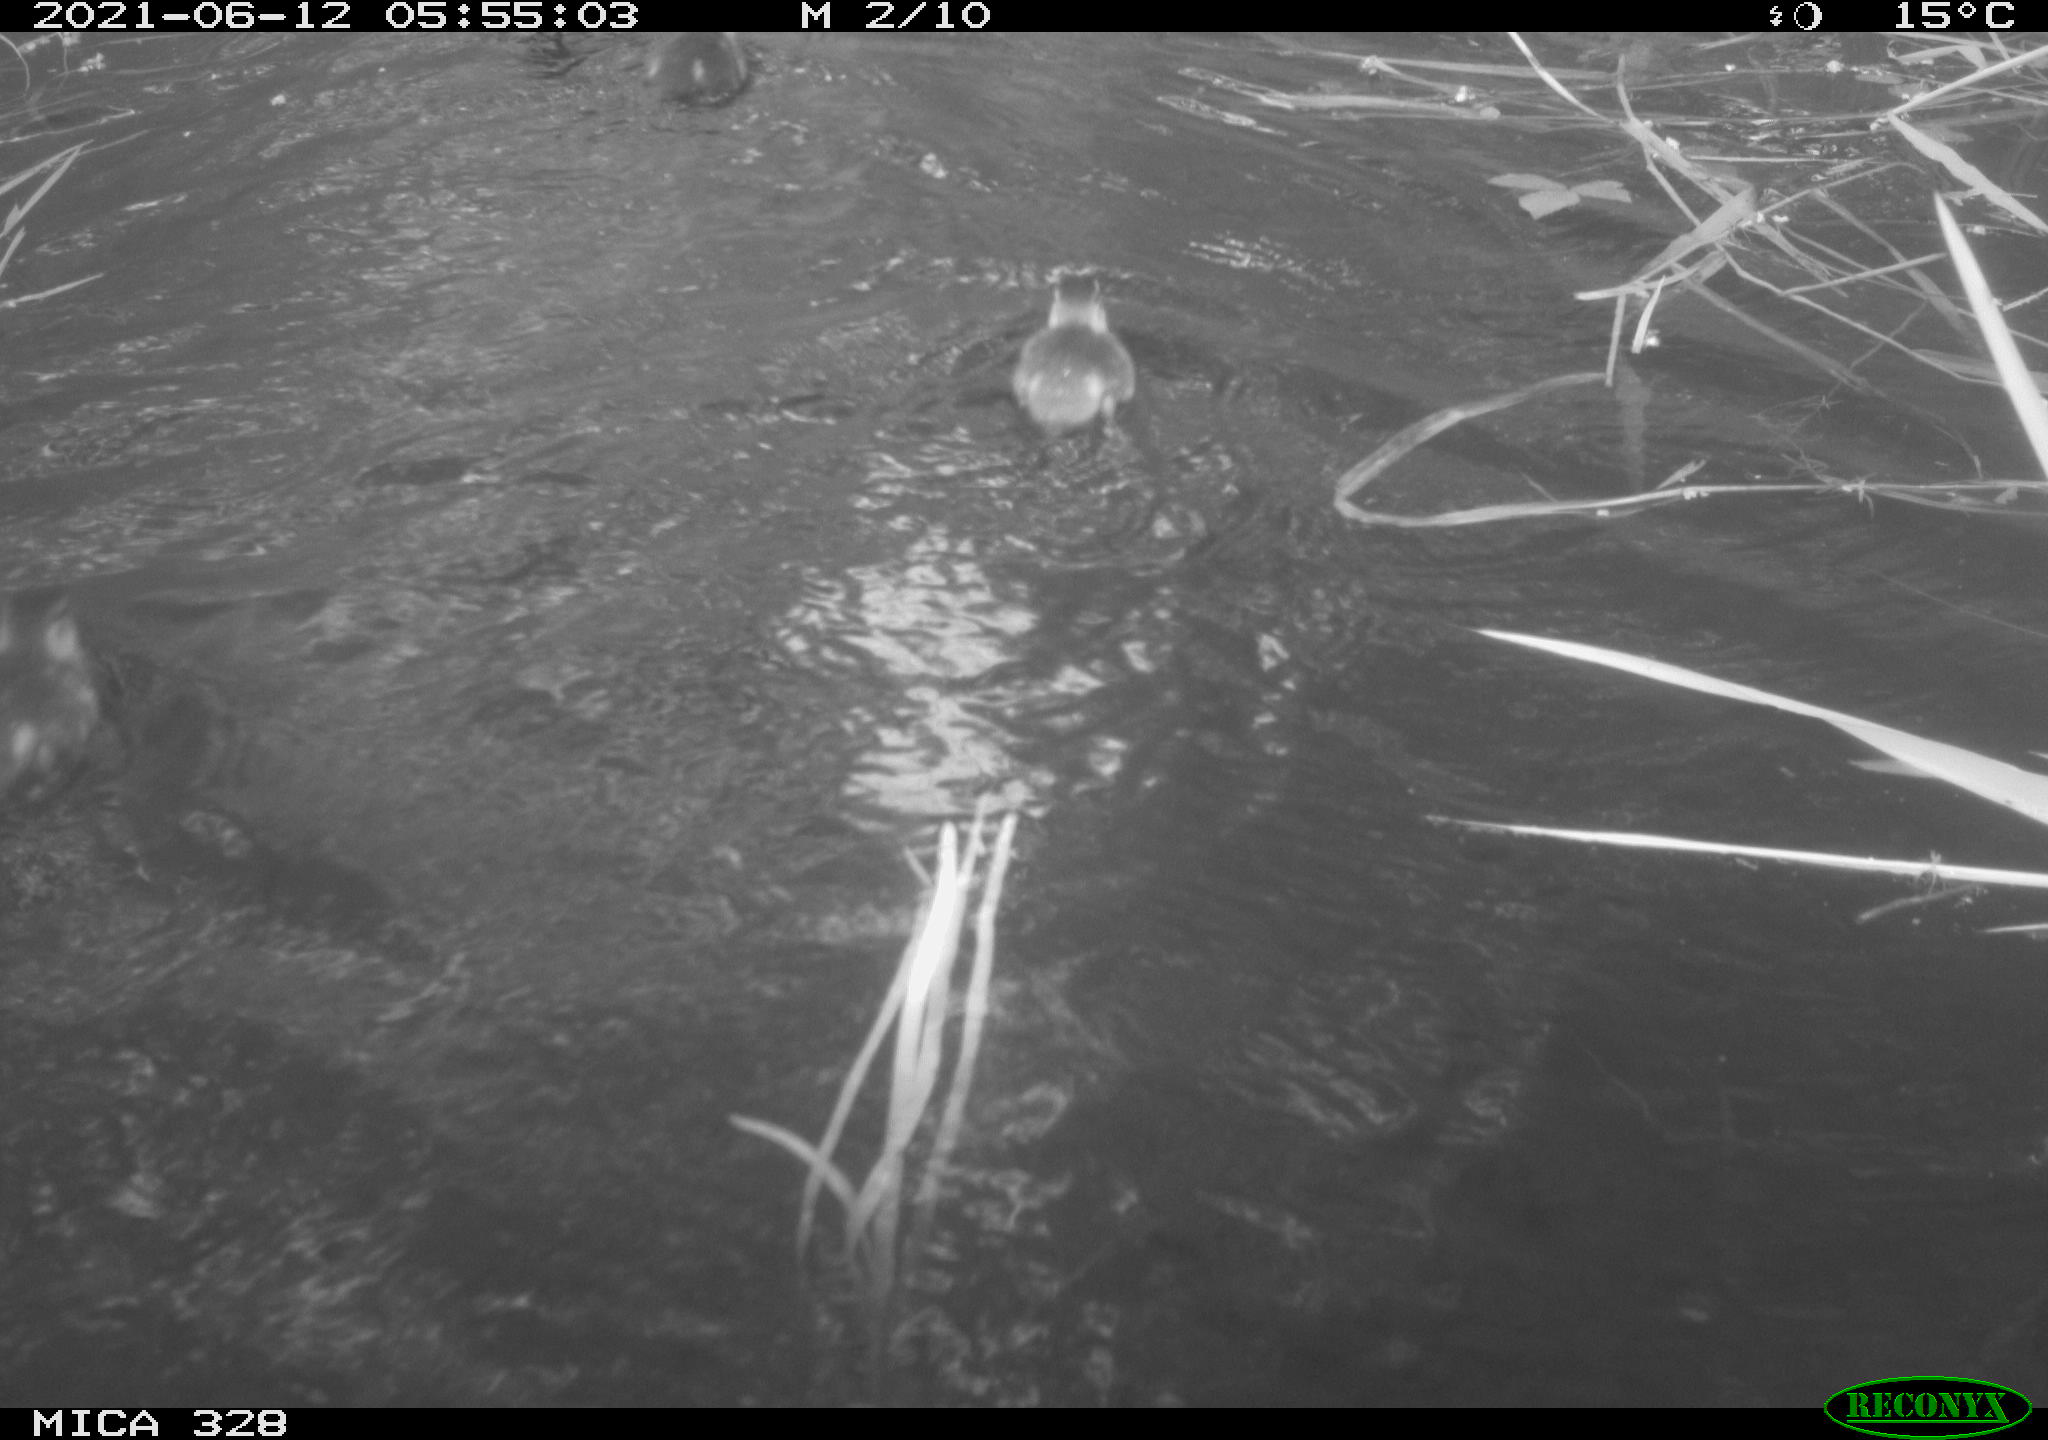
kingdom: Animalia
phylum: Chordata
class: Aves
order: Anseriformes
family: Anatidae
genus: Aix
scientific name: Aix galericulata
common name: Mandarin duck
